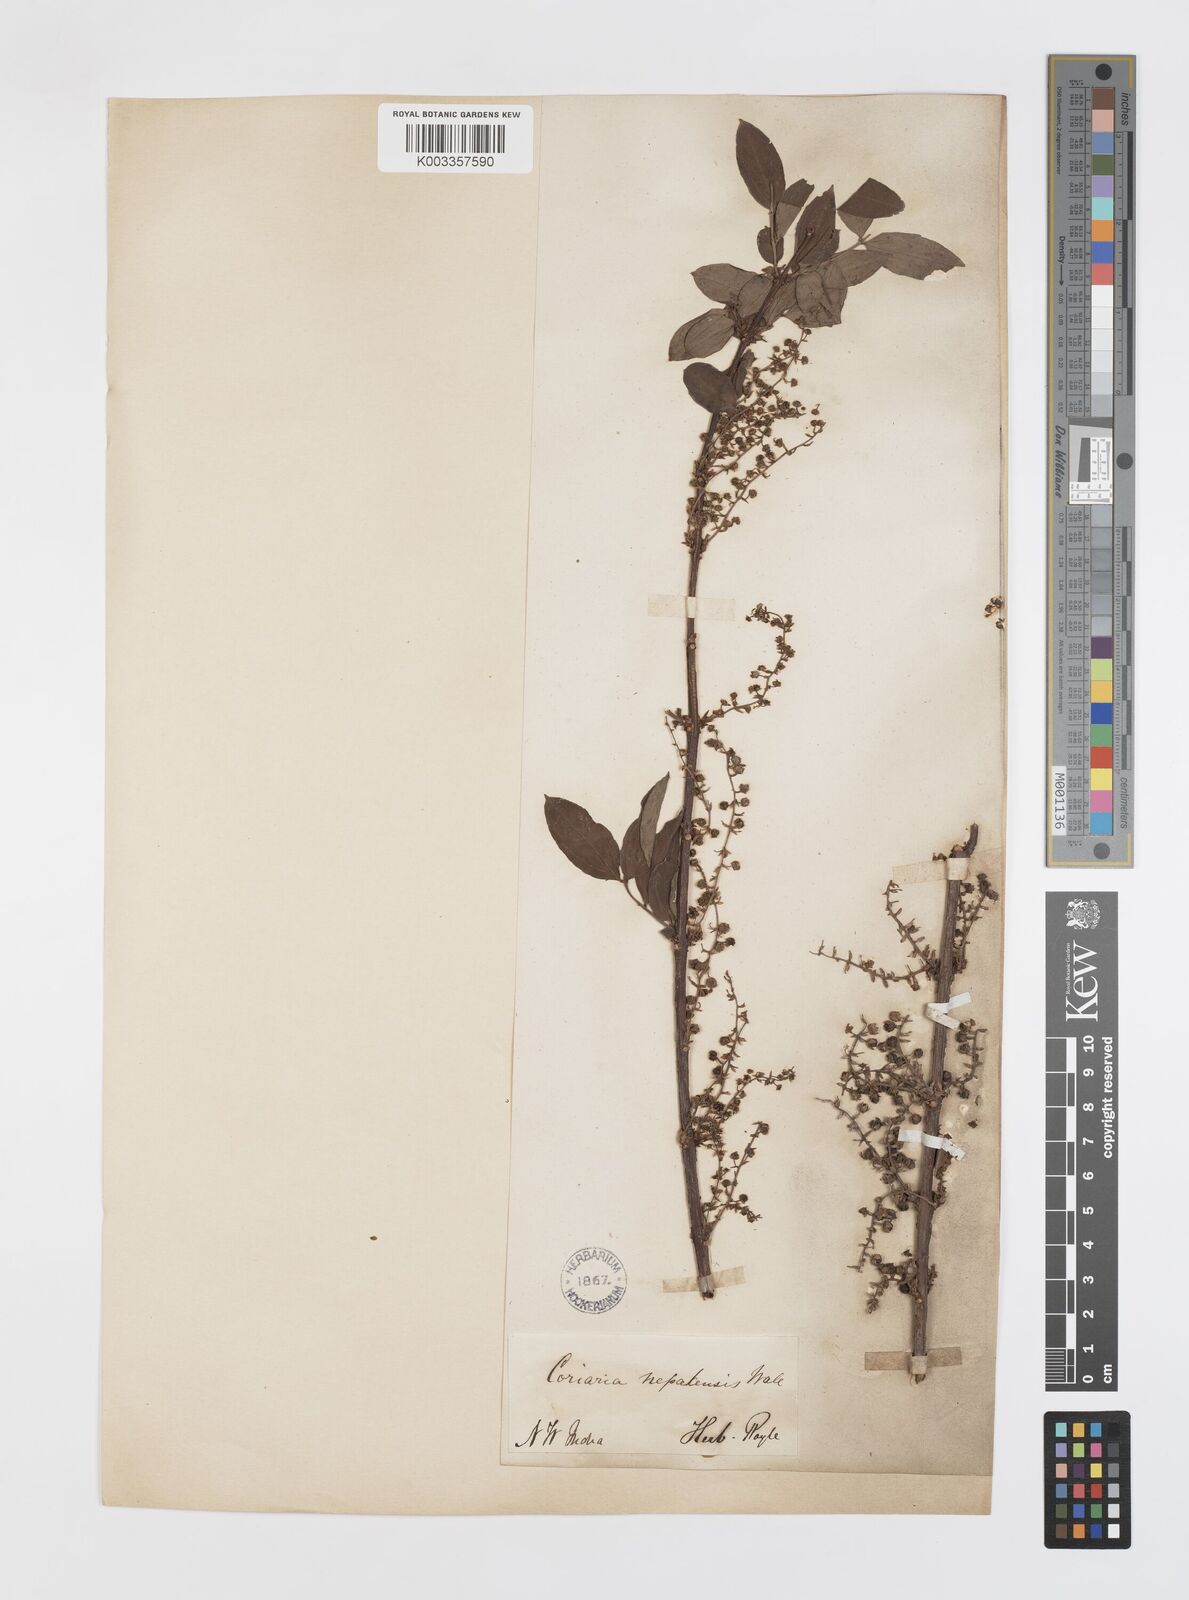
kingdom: Plantae
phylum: Tracheophyta
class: Magnoliopsida
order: Cucurbitales
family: Coriariaceae
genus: Coriaria
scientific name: Coriaria napalensis
